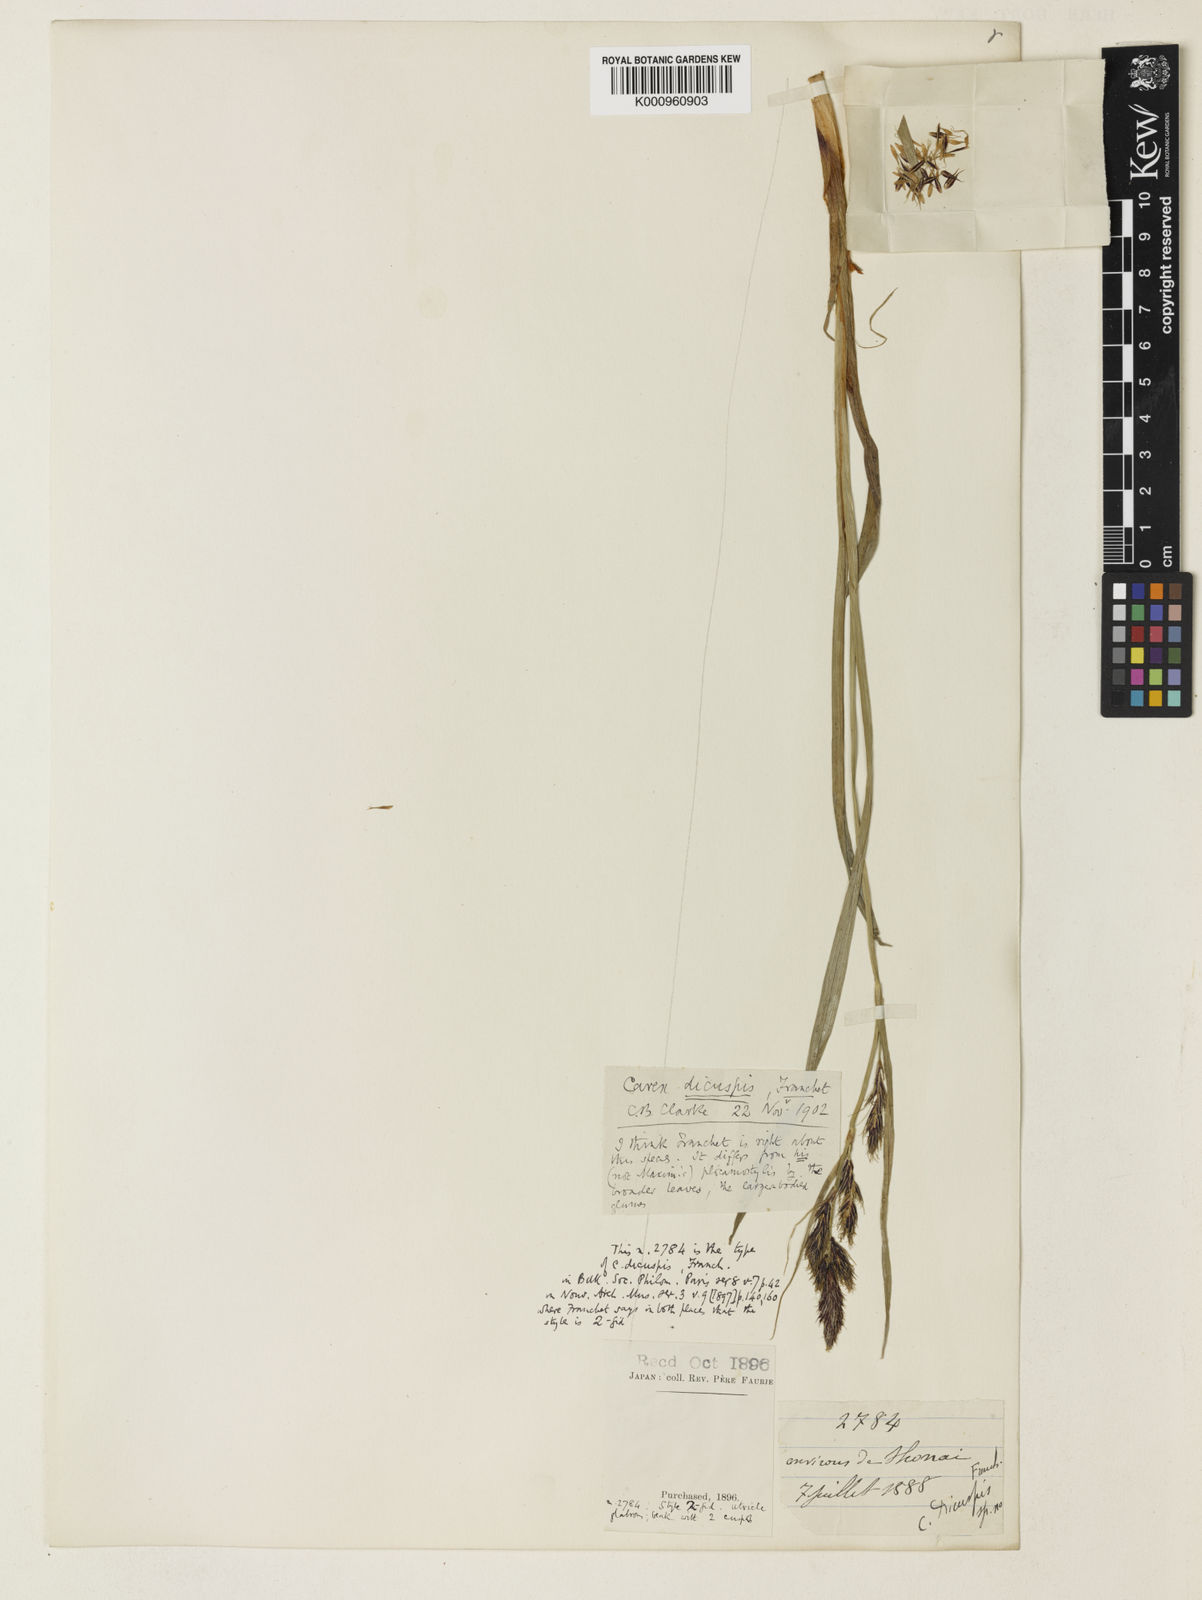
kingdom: Plantae
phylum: Tracheophyta
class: Liliopsida
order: Poales
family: Cyperaceae
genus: Carex
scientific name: Carex doenitzii
